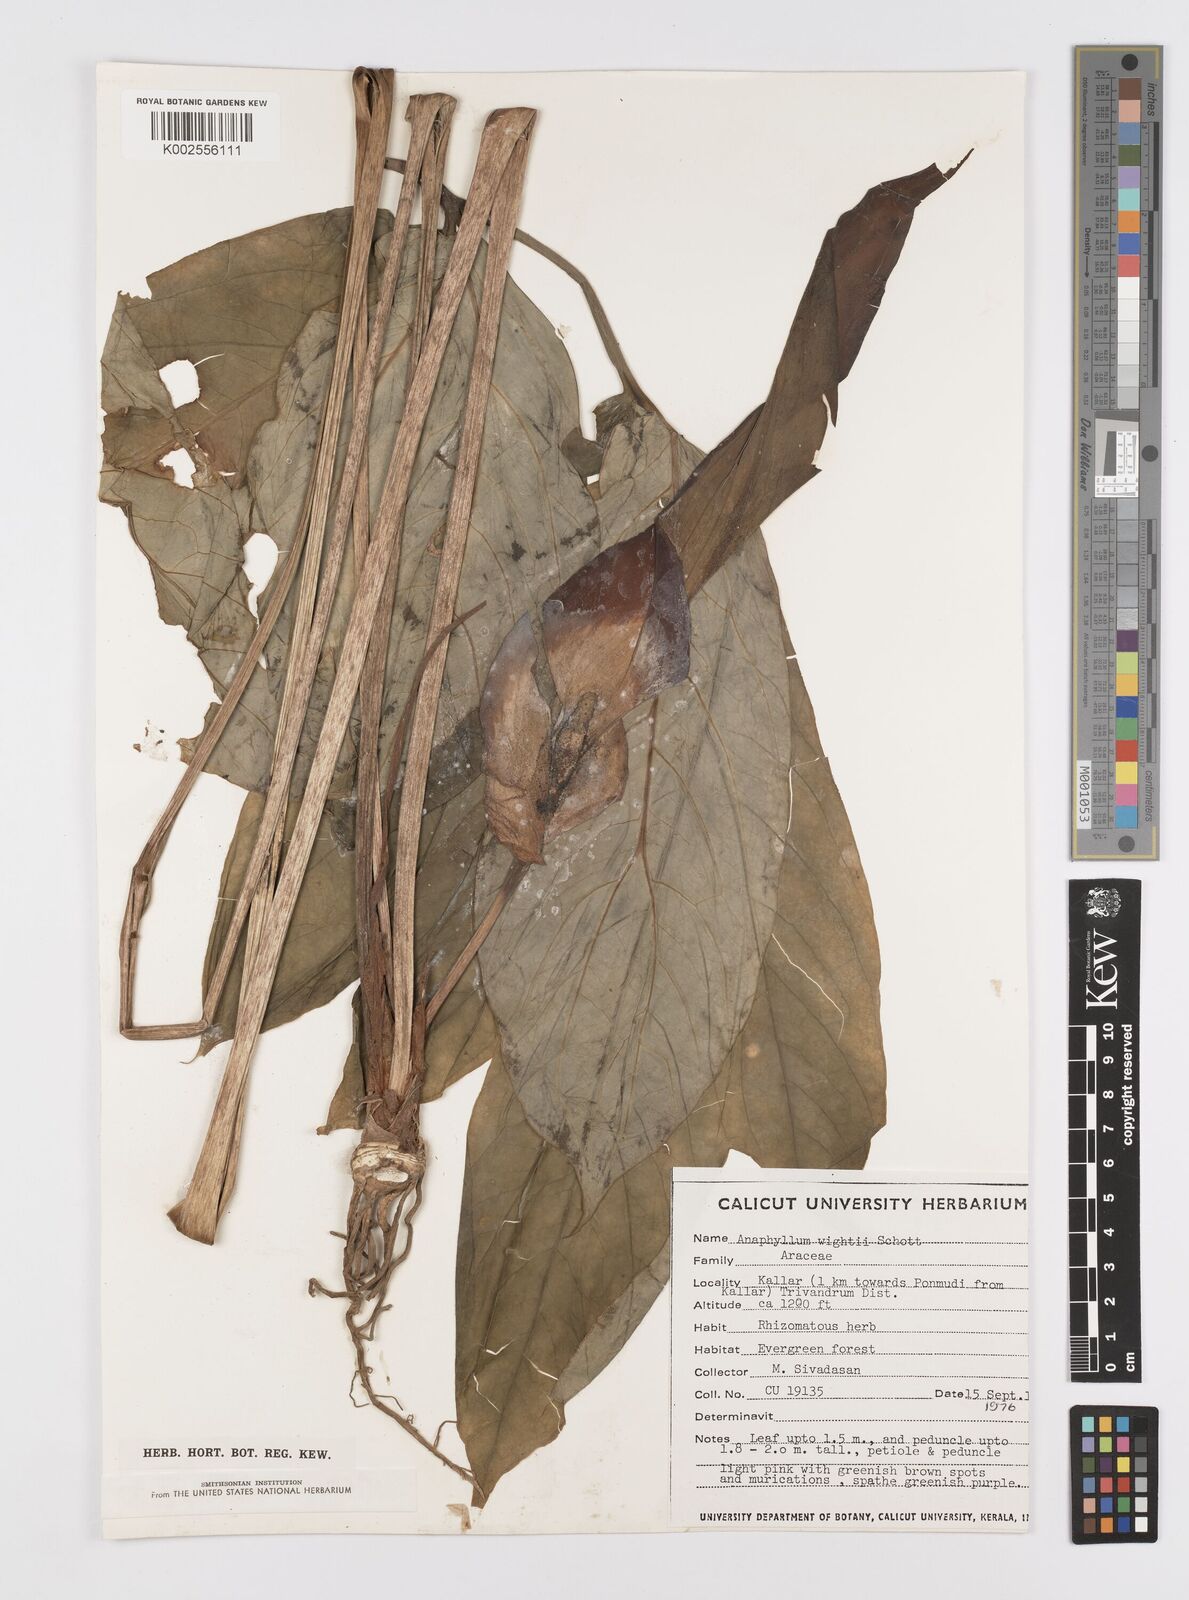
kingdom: Plantae
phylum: Tracheophyta
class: Liliopsida
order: Alismatales
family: Araceae
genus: Anaphyllum
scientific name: Anaphyllum wightii
